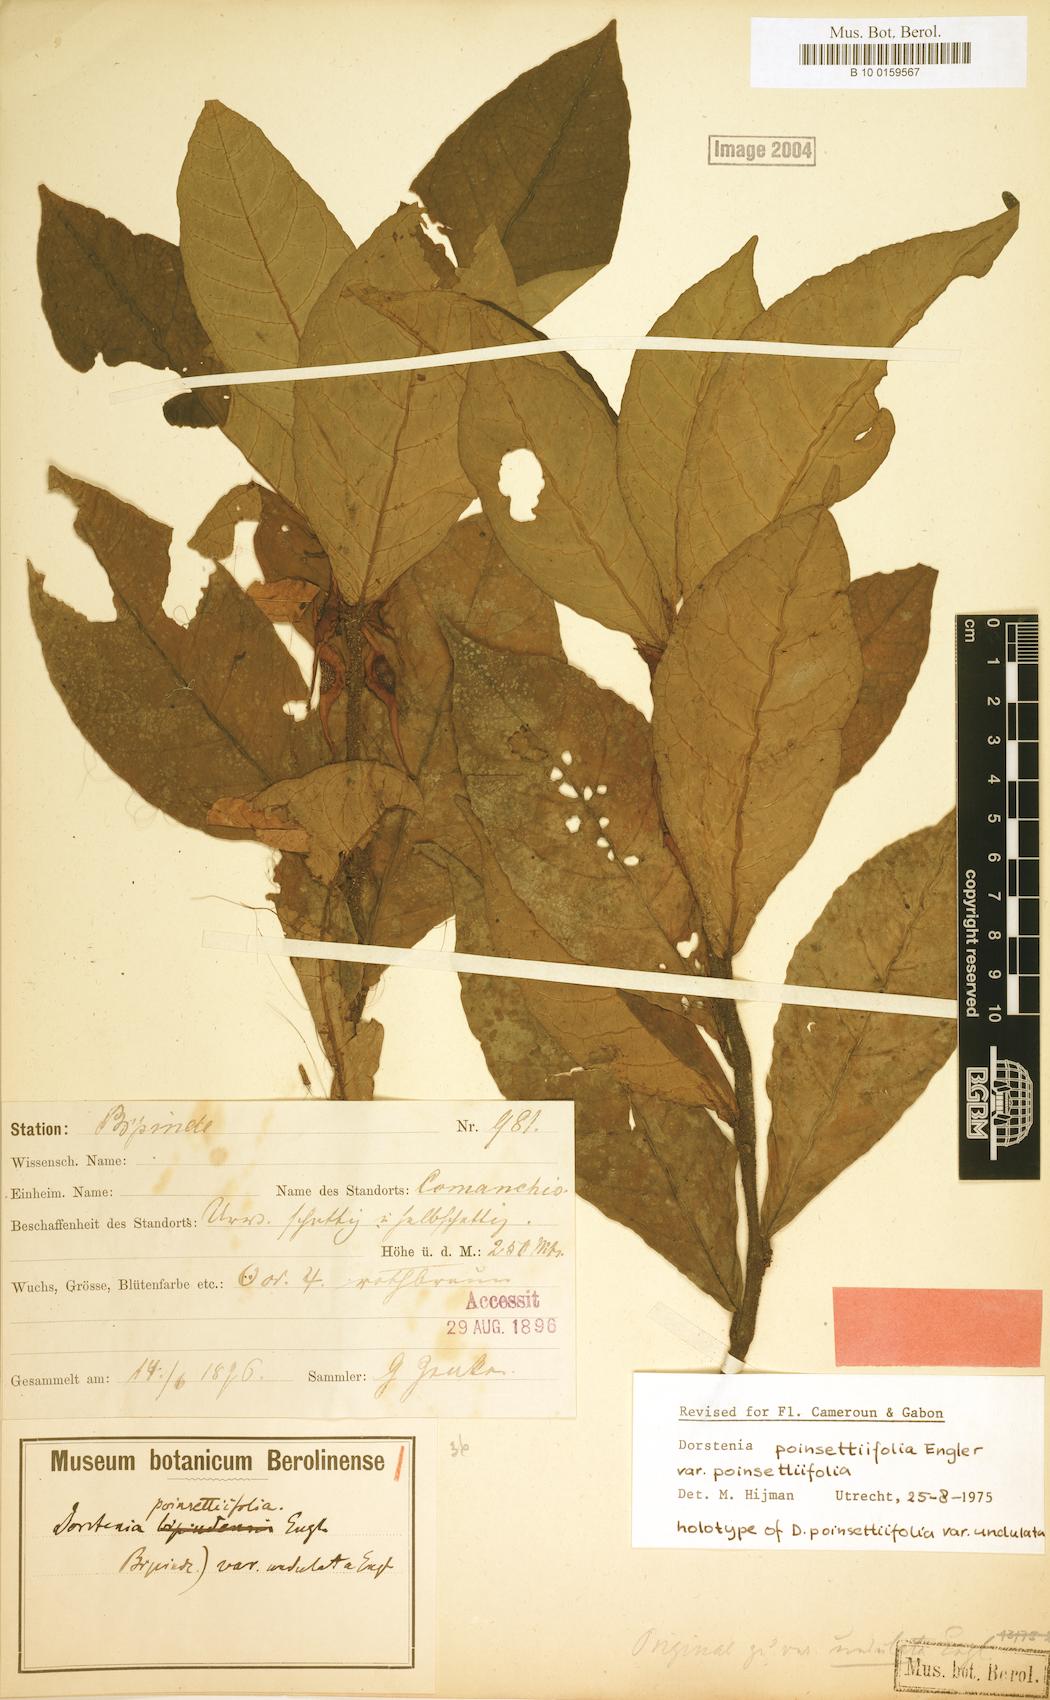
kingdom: Plantae
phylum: Tracheophyta
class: Magnoliopsida
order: Rosales
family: Moraceae
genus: Dorstenia
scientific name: Dorstenia poinsettifolia
